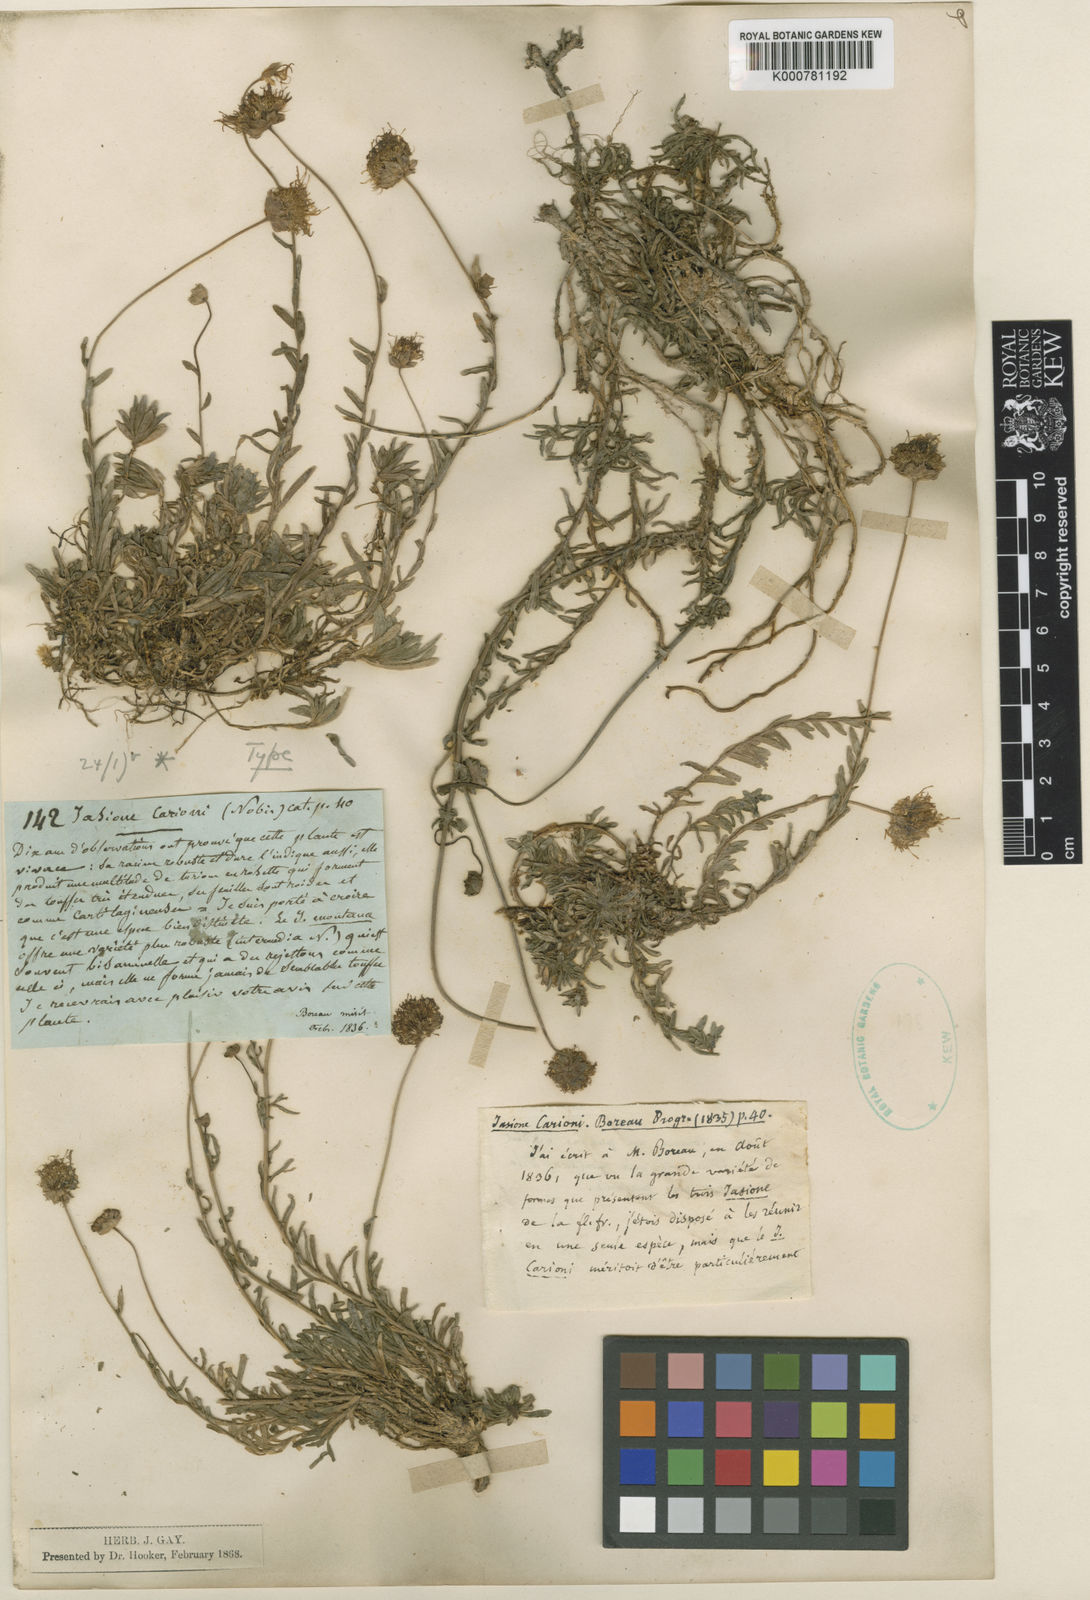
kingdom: Plantae
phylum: Tracheophyta
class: Magnoliopsida
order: Asterales
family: Campanulaceae
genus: Jasione
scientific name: Jasione montana
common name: Sheep's-bit
